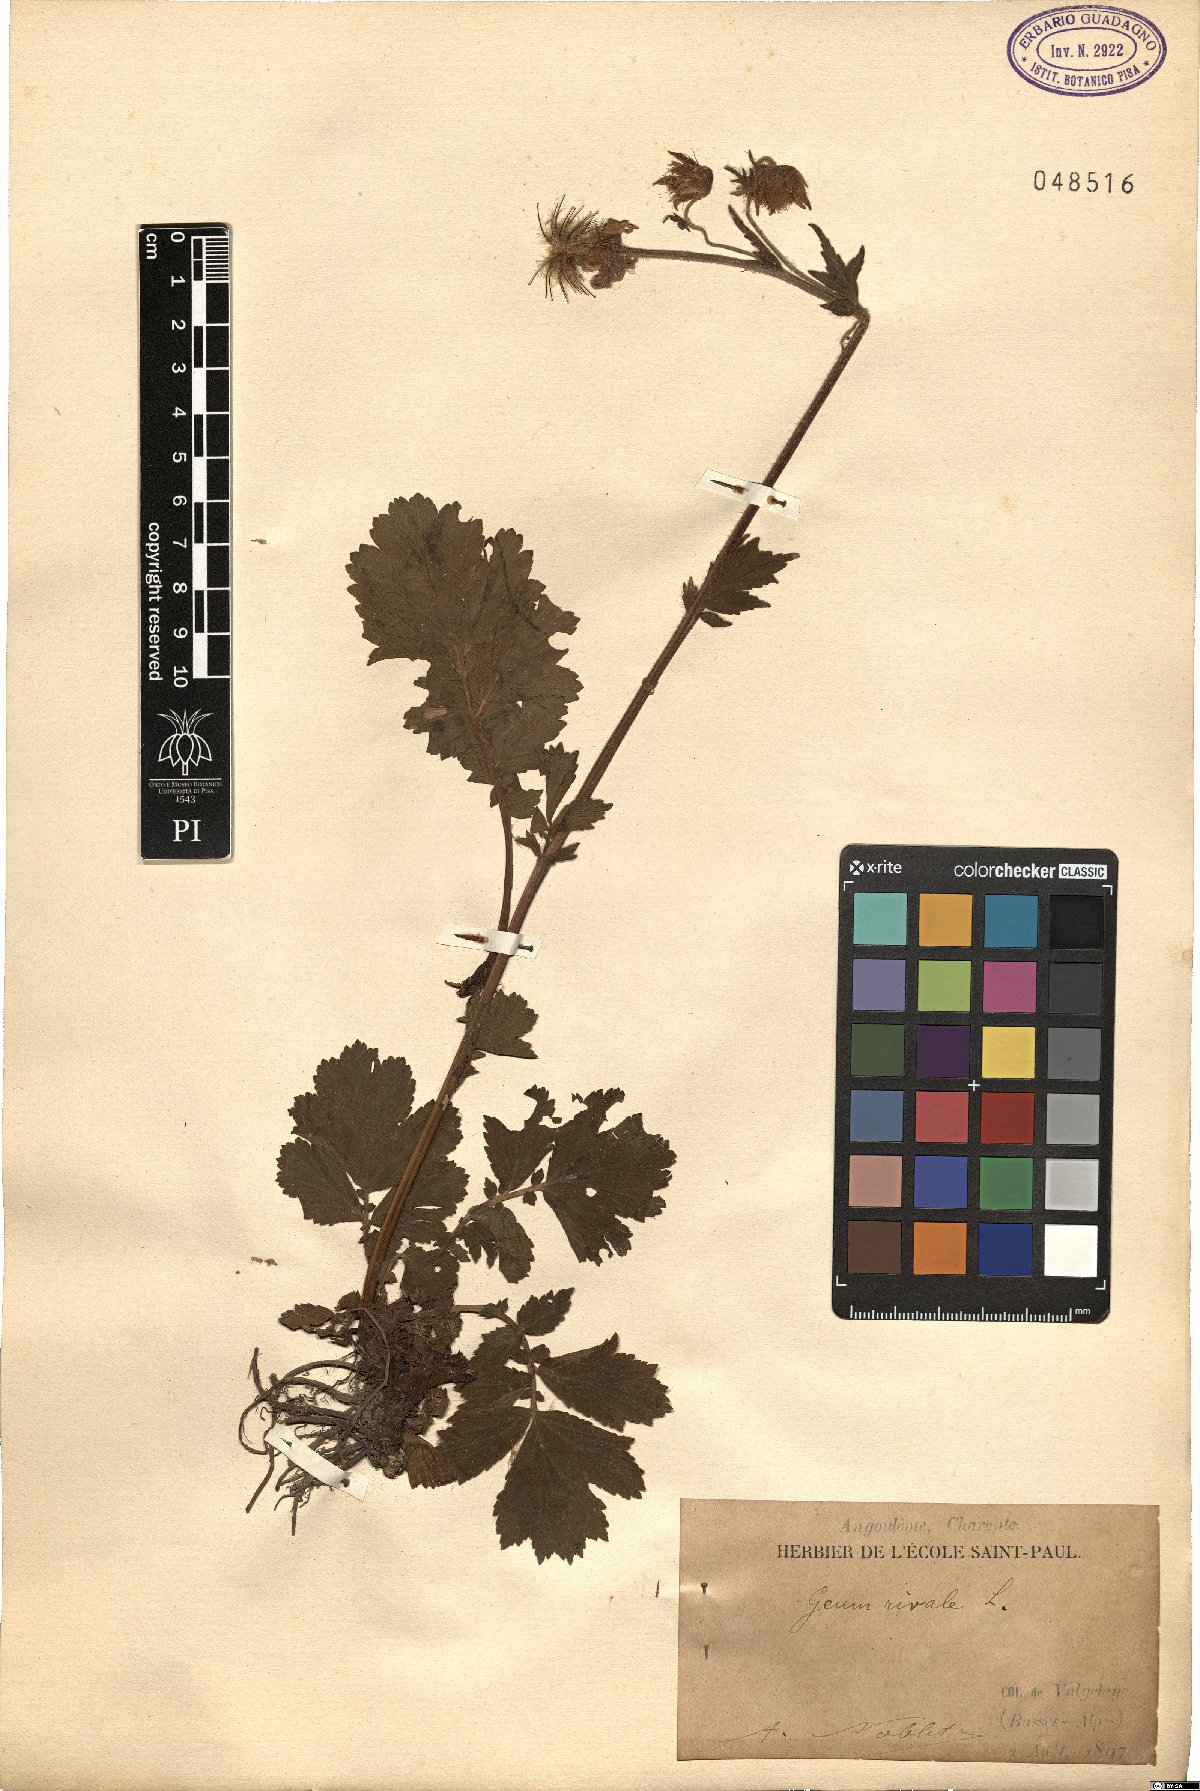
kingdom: Plantae
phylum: Tracheophyta
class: Magnoliopsida
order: Rosales
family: Rosaceae
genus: Geum
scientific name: Geum rivale
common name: Water avens
